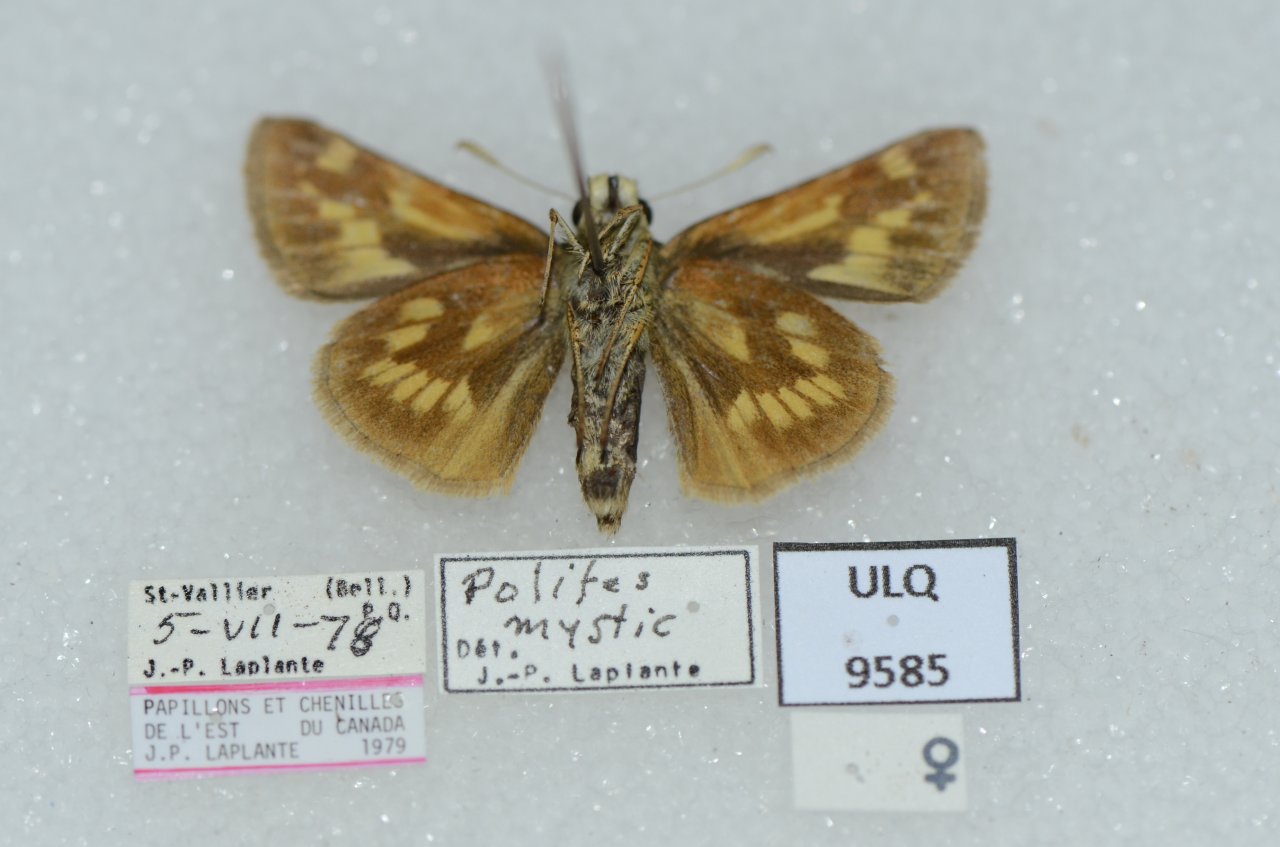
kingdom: Animalia
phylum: Arthropoda
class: Insecta
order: Lepidoptera
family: Hesperiidae
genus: Polites
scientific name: Polites
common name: Long Dash Skipper
